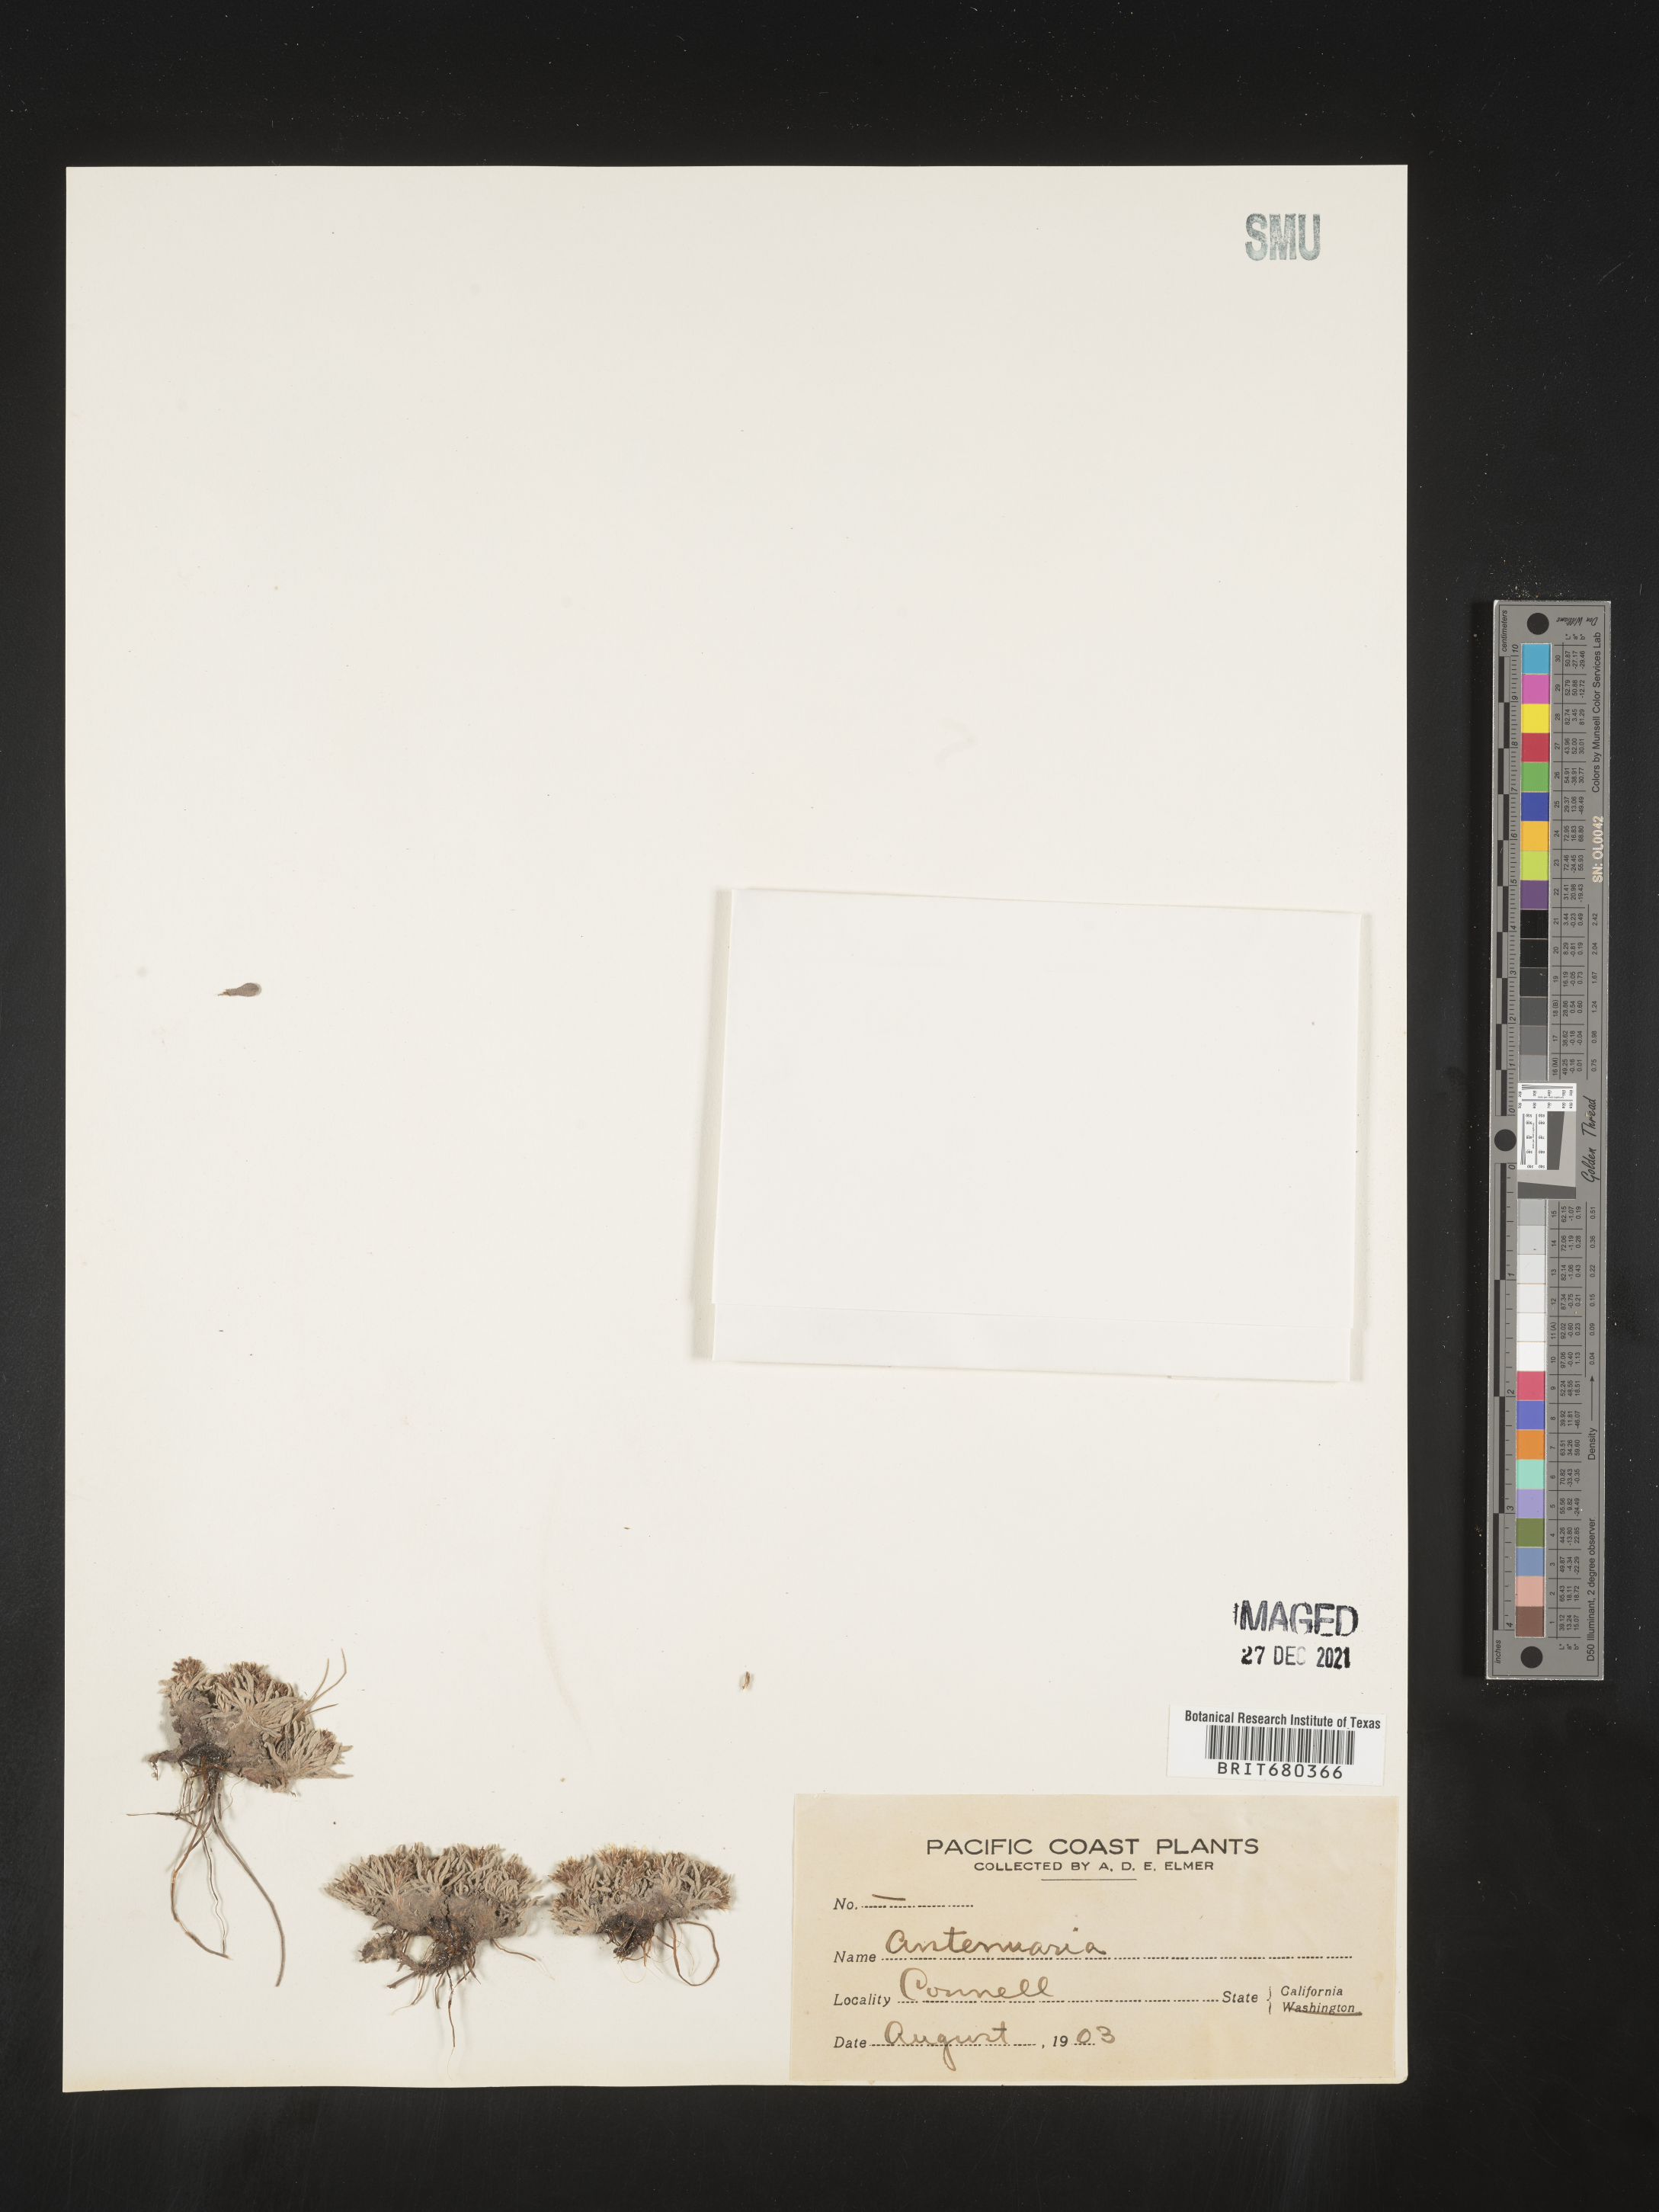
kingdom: Plantae
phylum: Tracheophyta
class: Magnoliopsida
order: Asterales
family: Asteraceae
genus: Antennaria
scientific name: Antennaria
